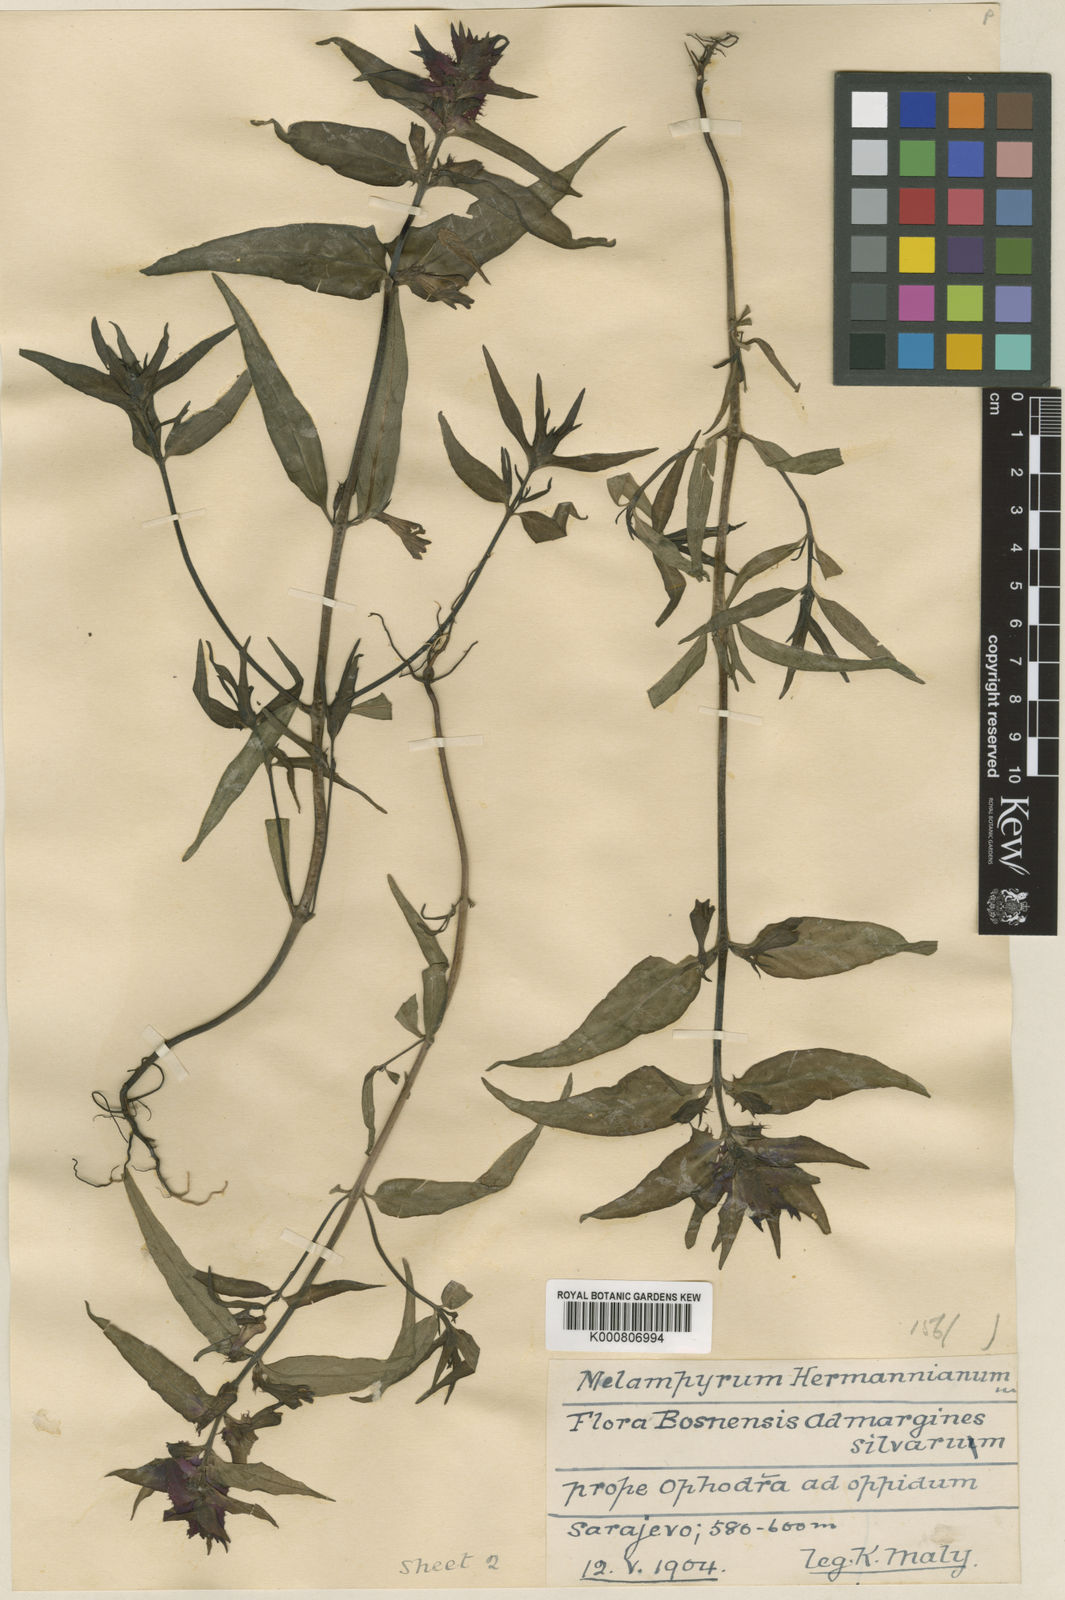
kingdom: Plantae
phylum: Tracheophyta
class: Magnoliopsida
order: Lamiales
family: Orobanchaceae
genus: Melampyrum
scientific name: Melampyrum hoermannianum
